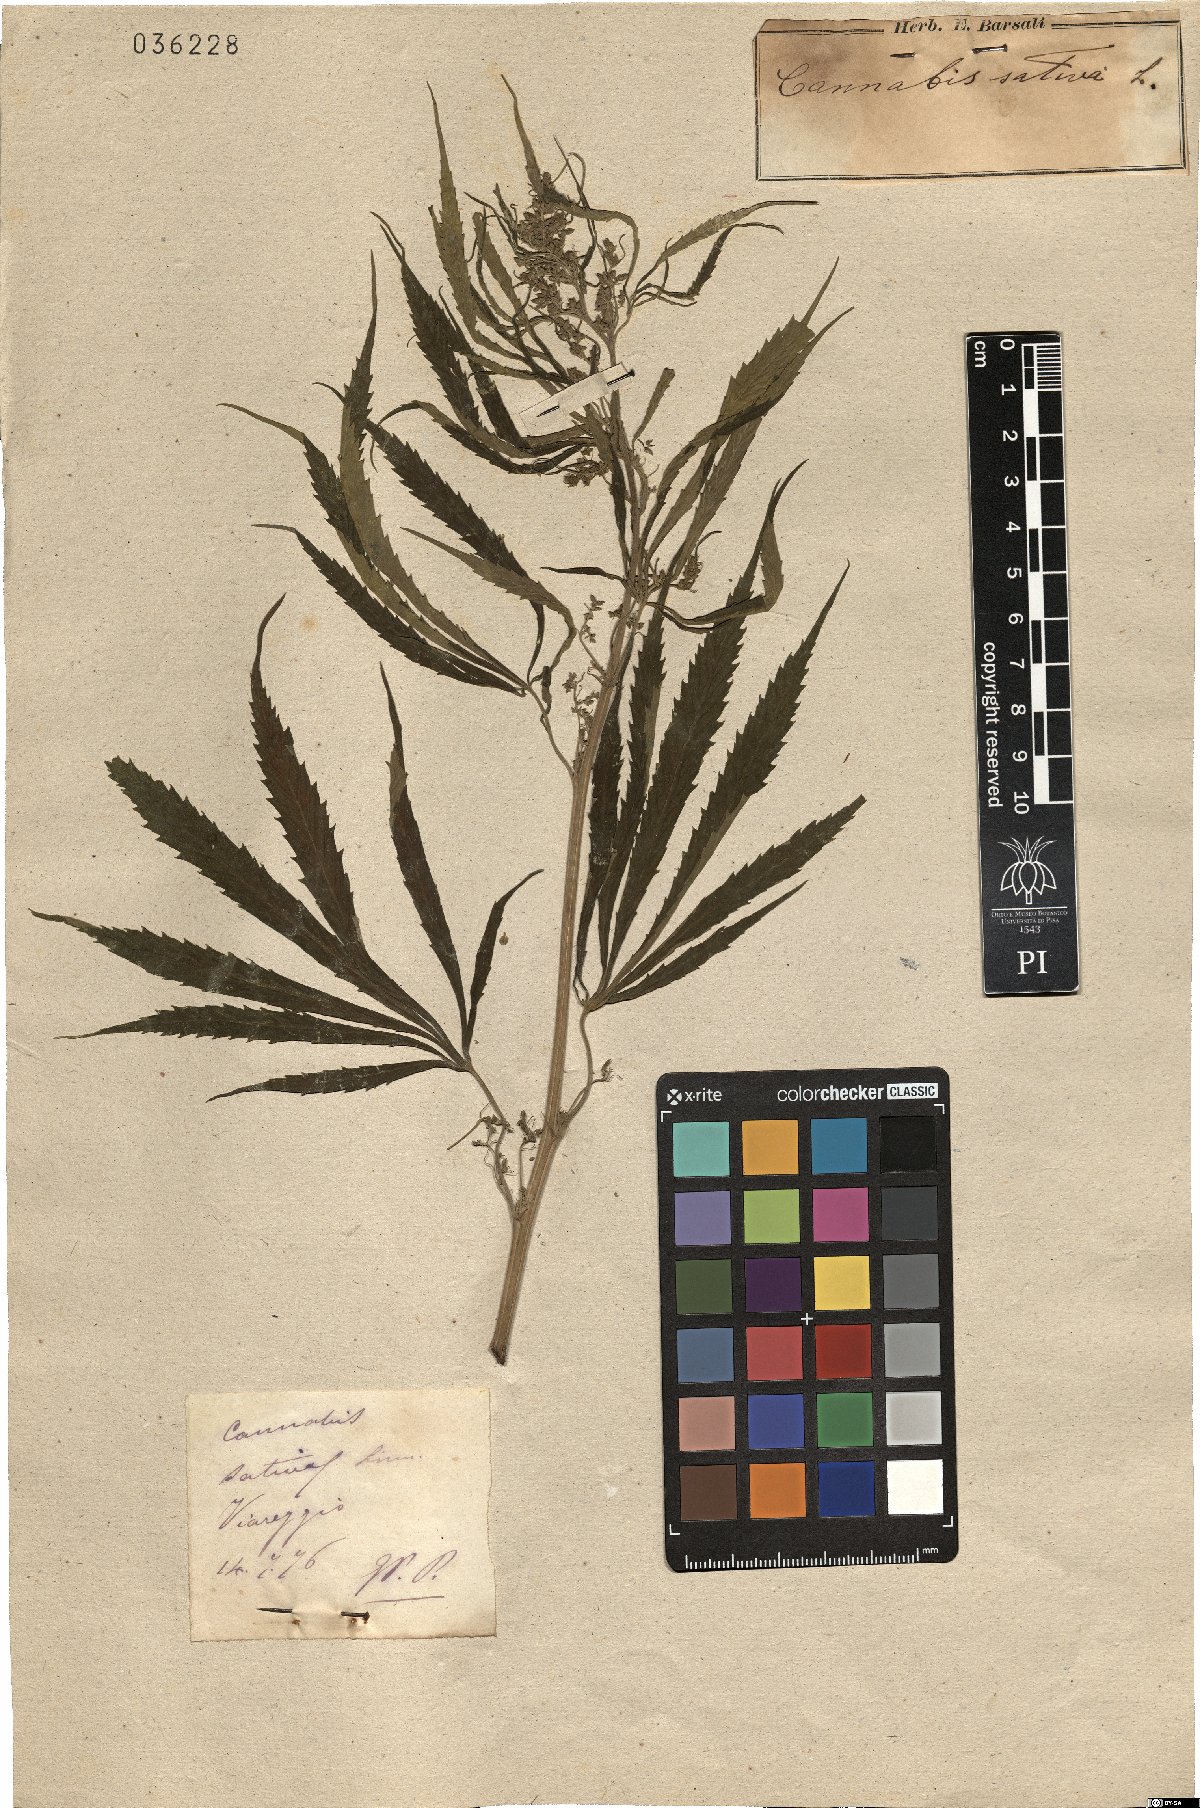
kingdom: Plantae
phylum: Tracheophyta
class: Magnoliopsida
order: Rosales
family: Cannabaceae
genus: Cannabis
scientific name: Cannabis sativa
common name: Hemp
